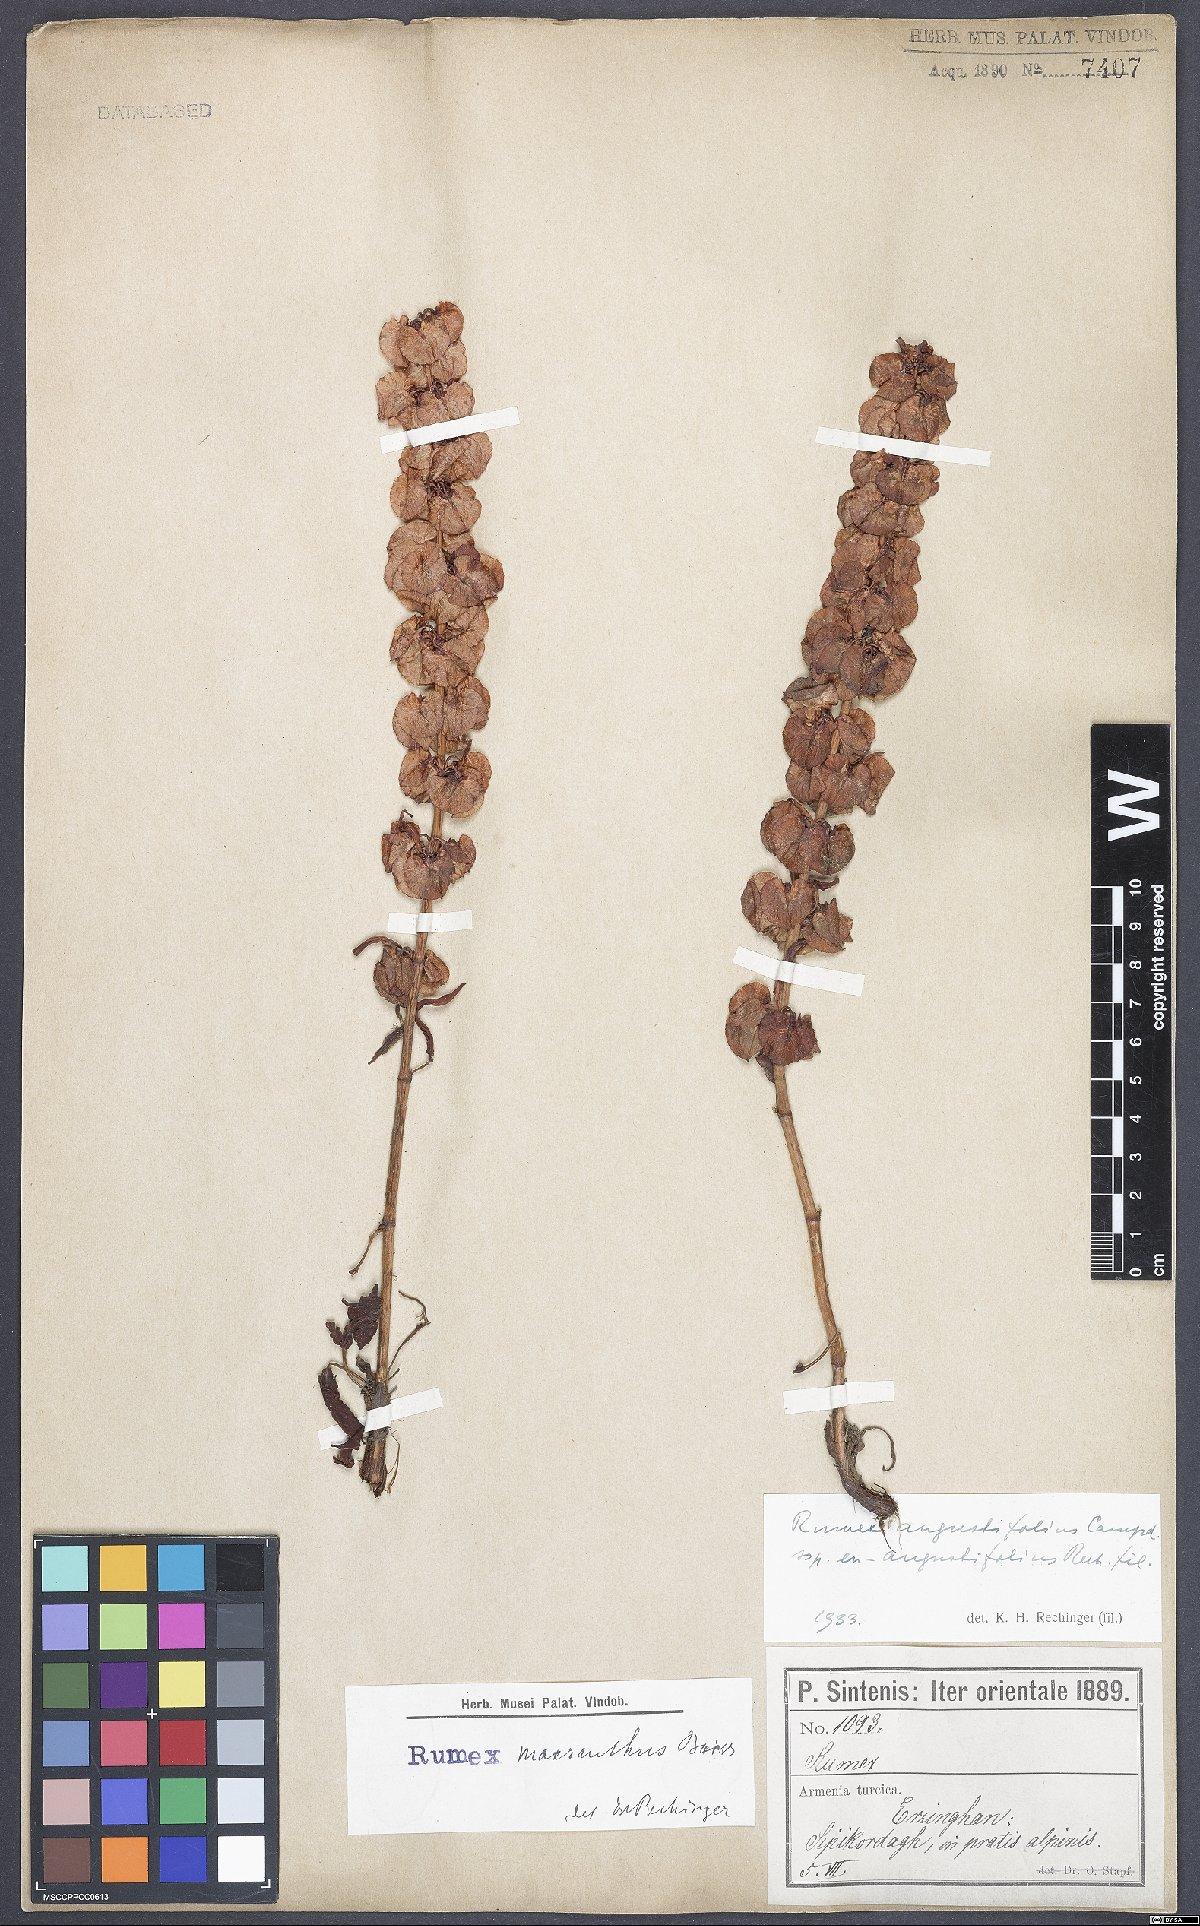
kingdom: Plantae
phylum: Tracheophyta
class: Magnoliopsida
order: Caryophyllales
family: Polygonaceae
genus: Rumex
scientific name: Rumex angustifolius
